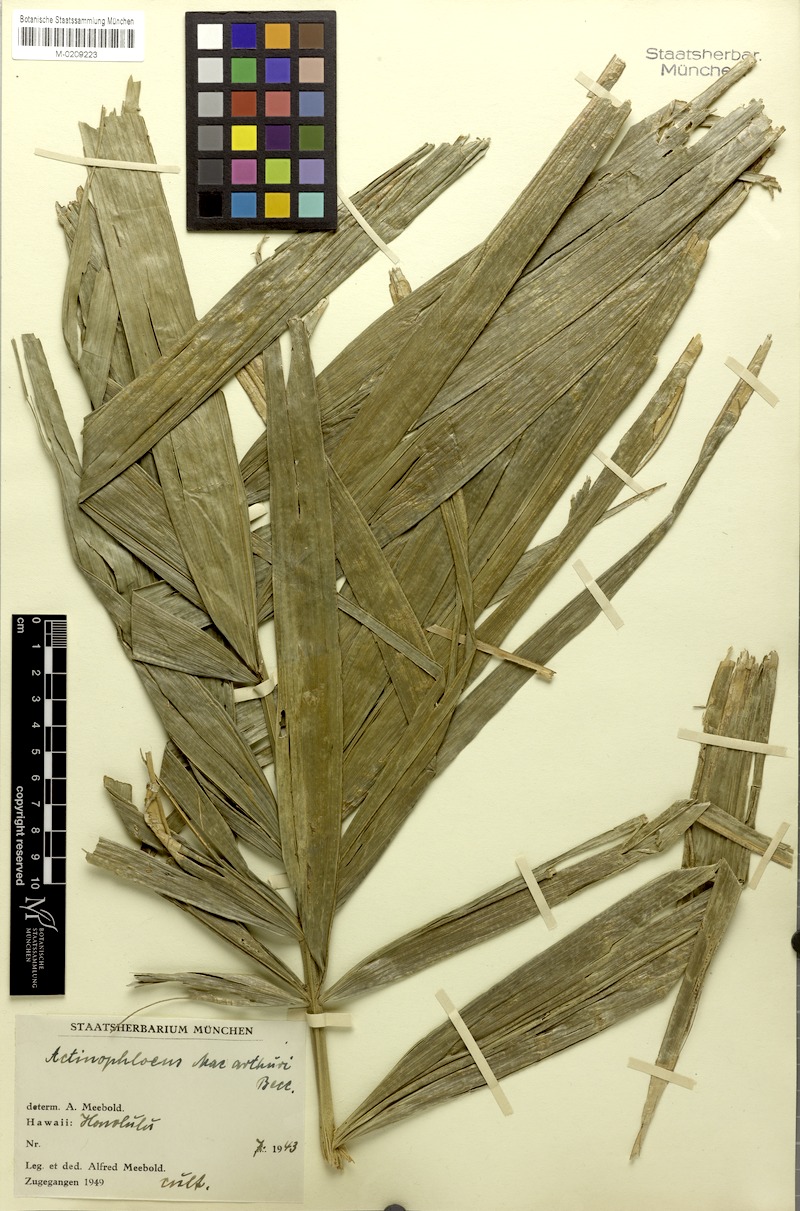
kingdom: Plantae
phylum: Tracheophyta
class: Liliopsida
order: Arecales
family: Arecaceae
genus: Ptychosperma
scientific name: Ptychosperma macarthurii
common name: Macarthur palm
